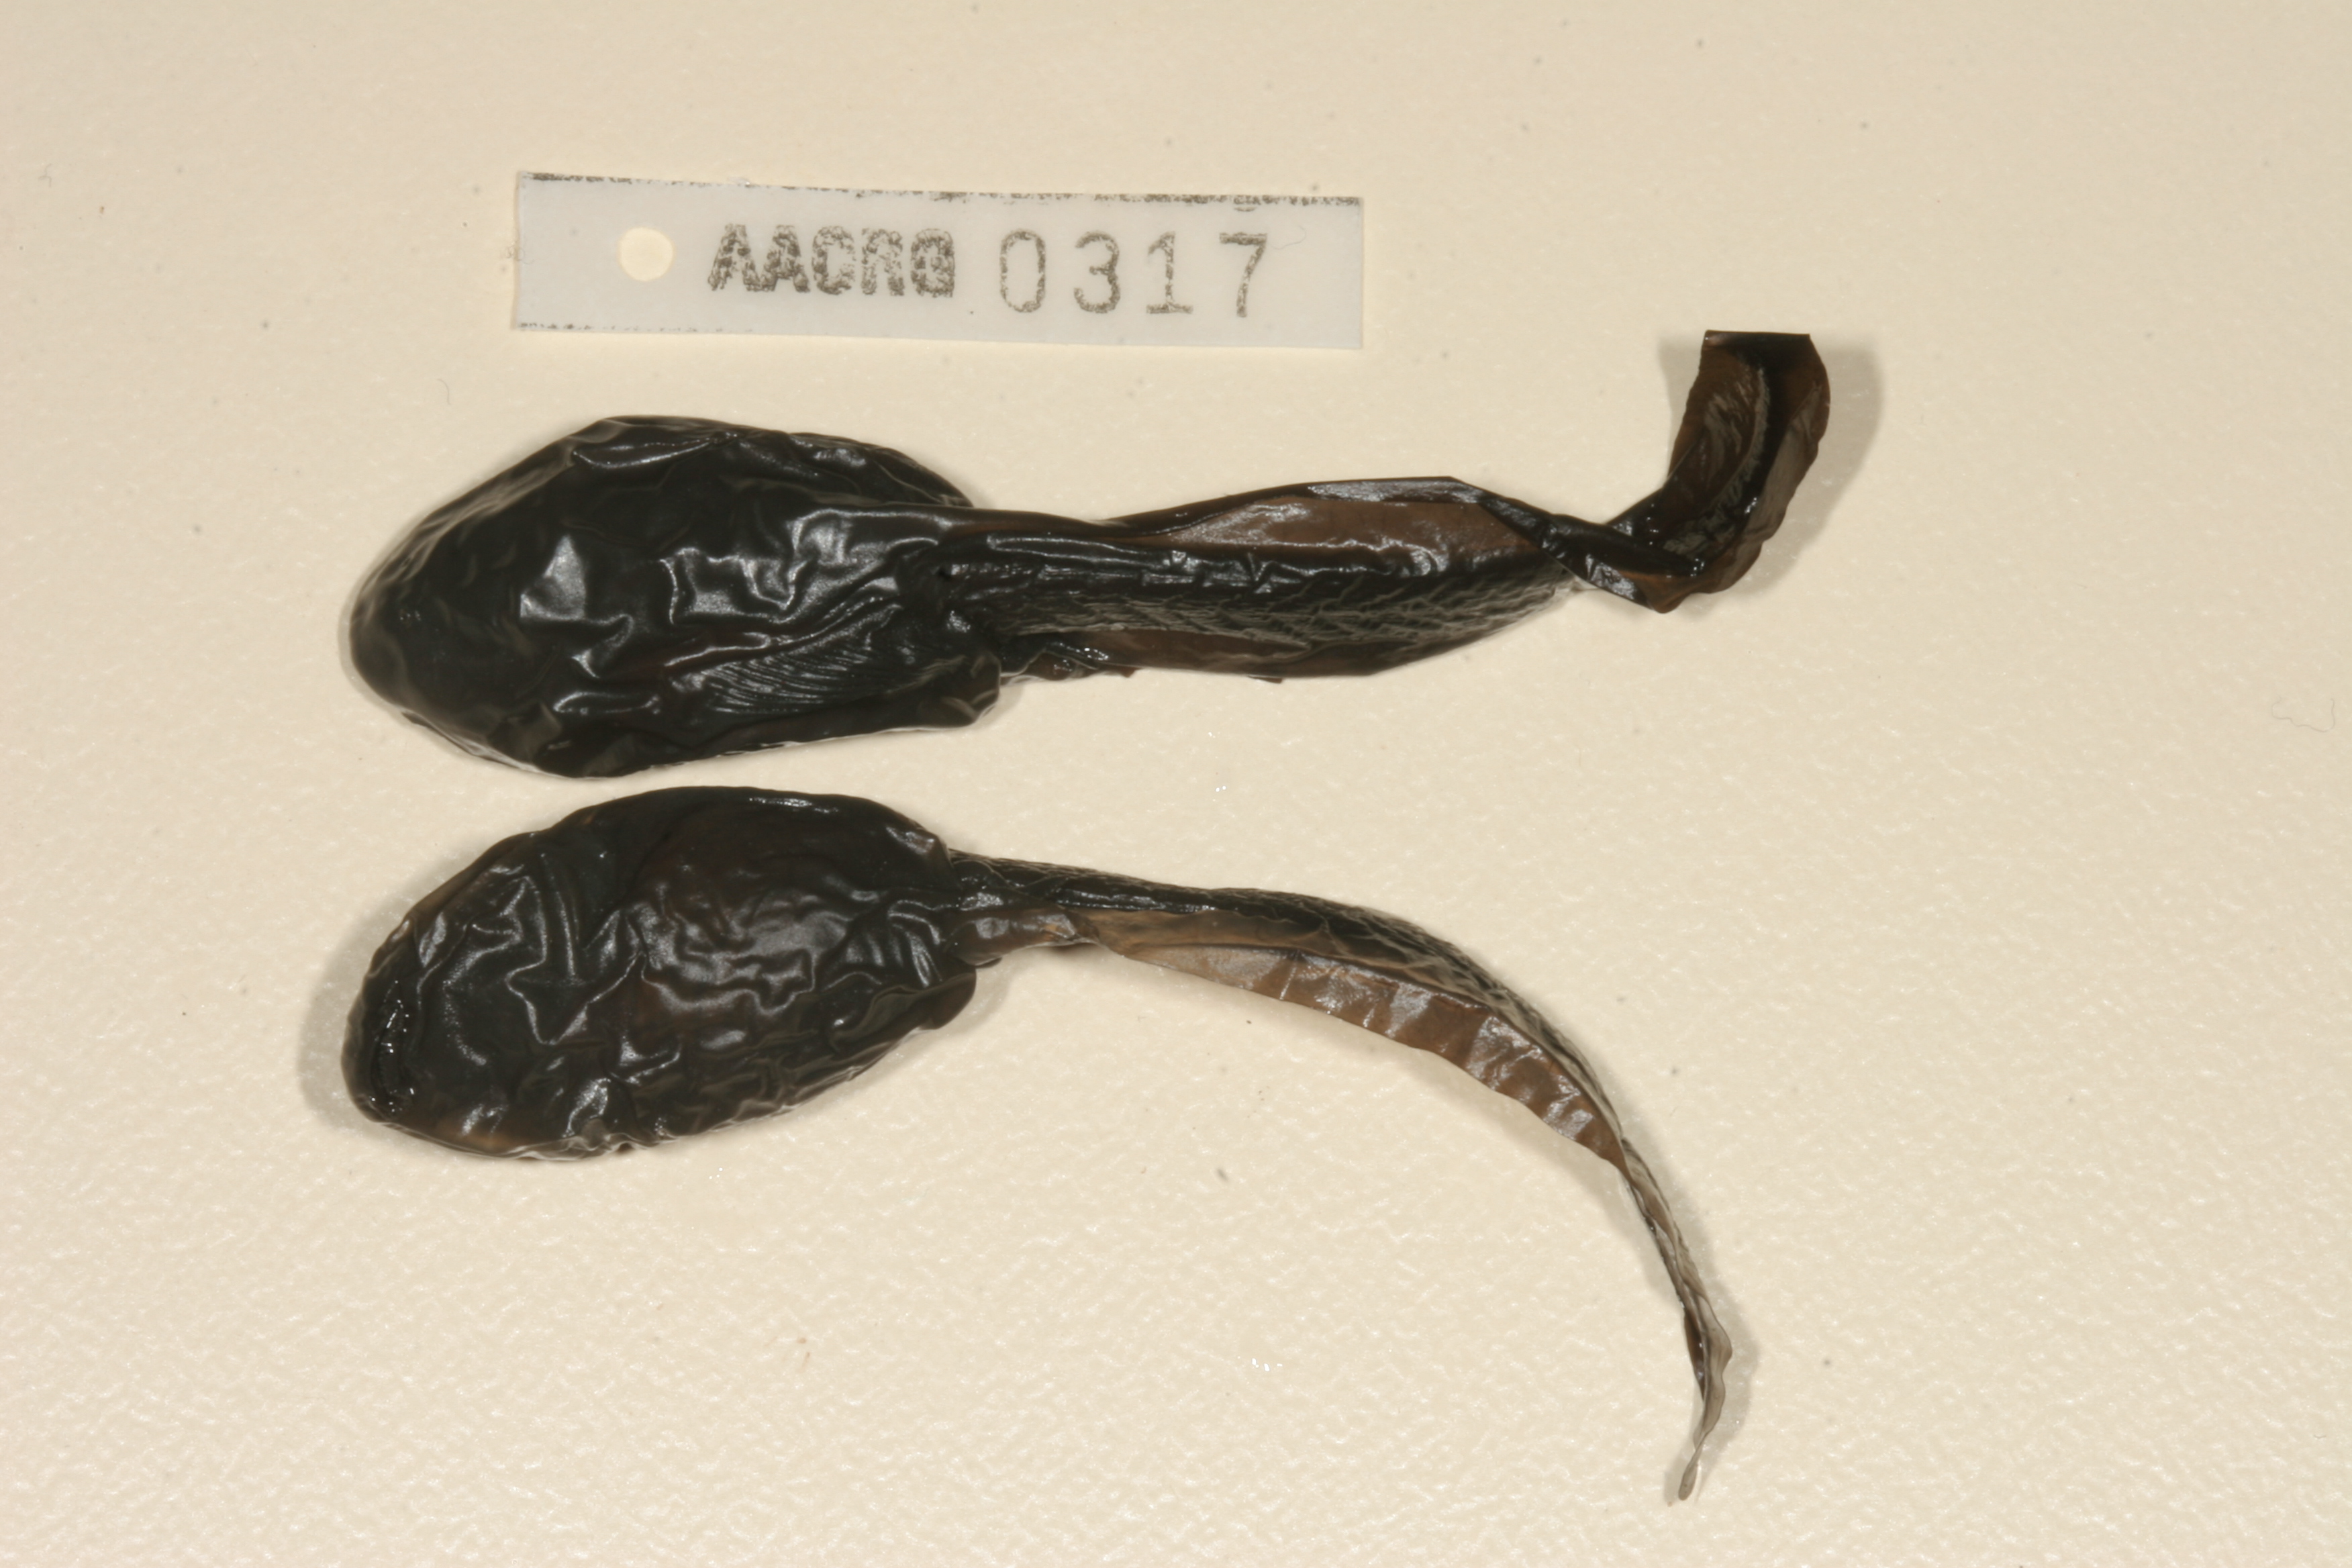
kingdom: Animalia
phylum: Chordata
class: Amphibia
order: Anura
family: Pyxicephalidae
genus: Pyxicephalus
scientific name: Pyxicephalus adspersus
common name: African bullfrog
